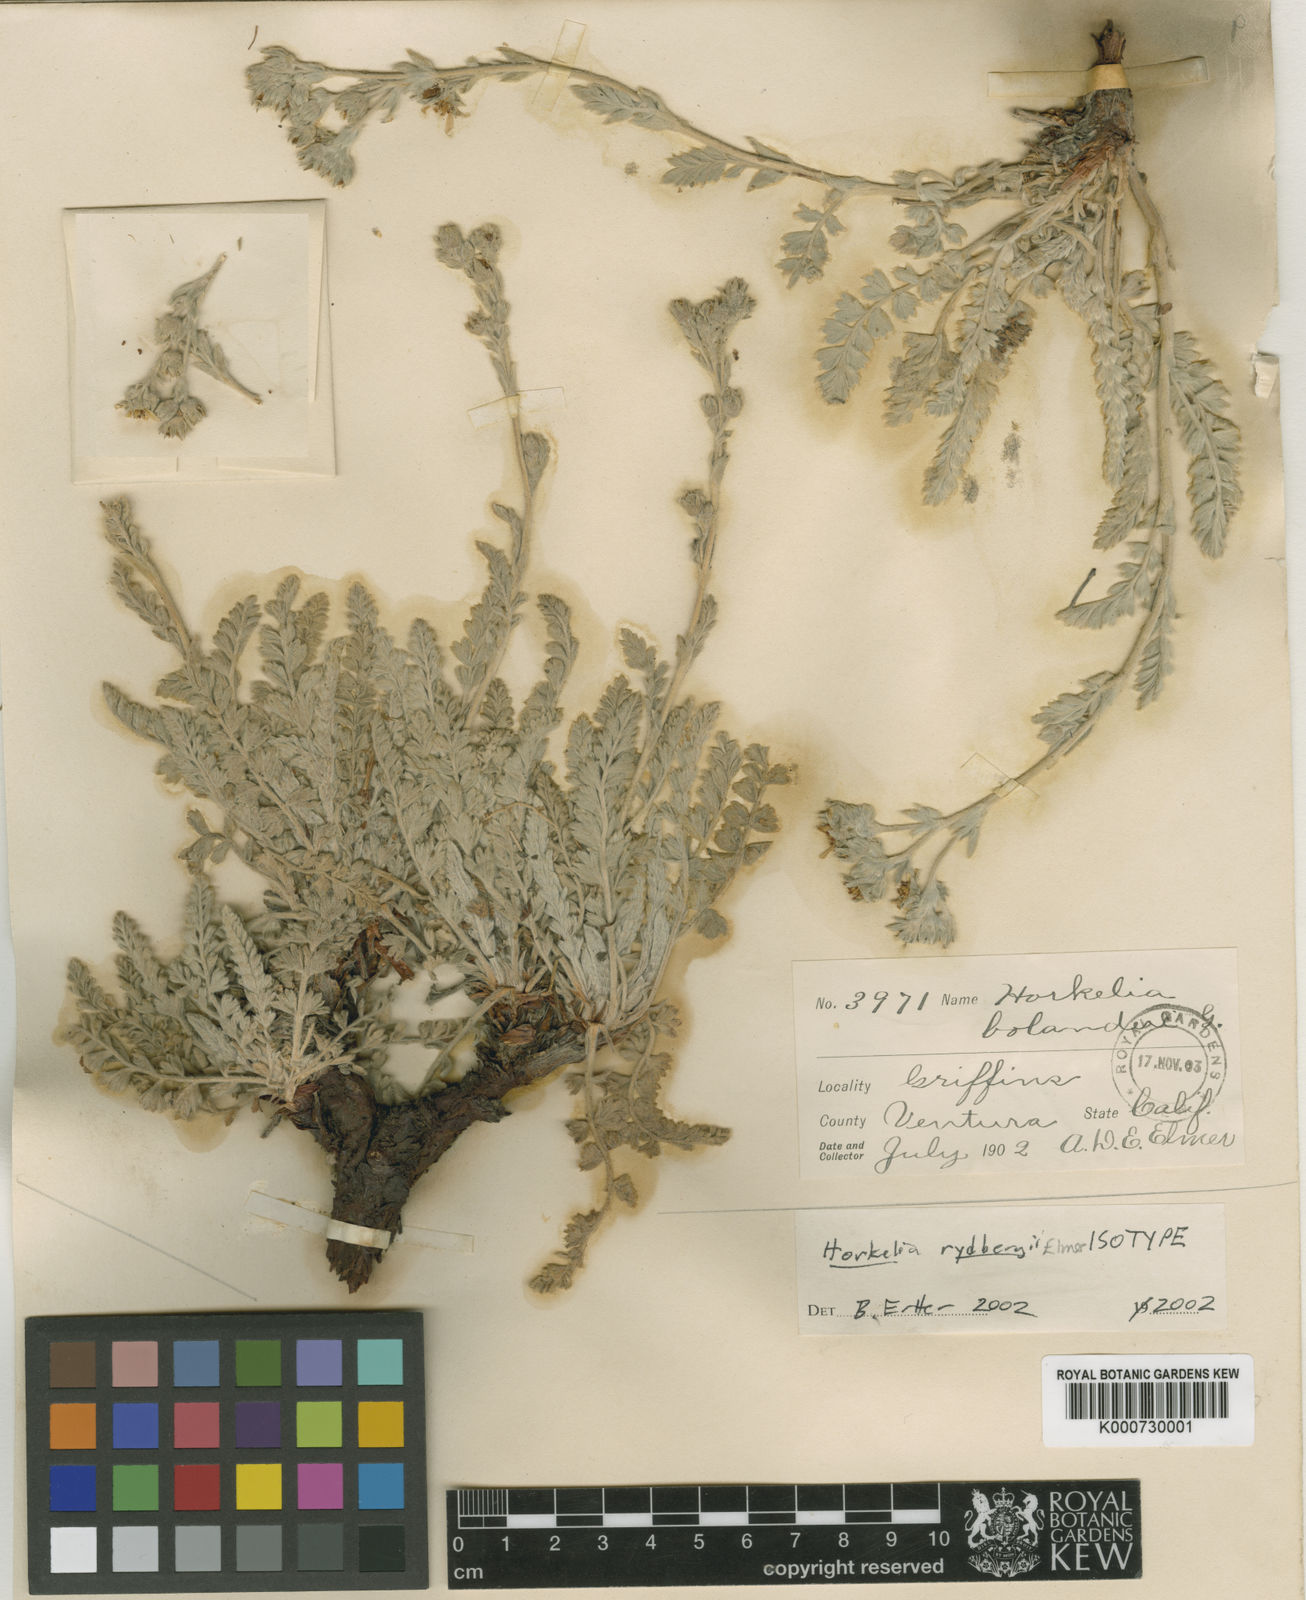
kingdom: Plantae
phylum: Tracheophyta
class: Magnoliopsida
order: Rosales
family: Rosaceae
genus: Potentilla
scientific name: Potentilla rydbergii
